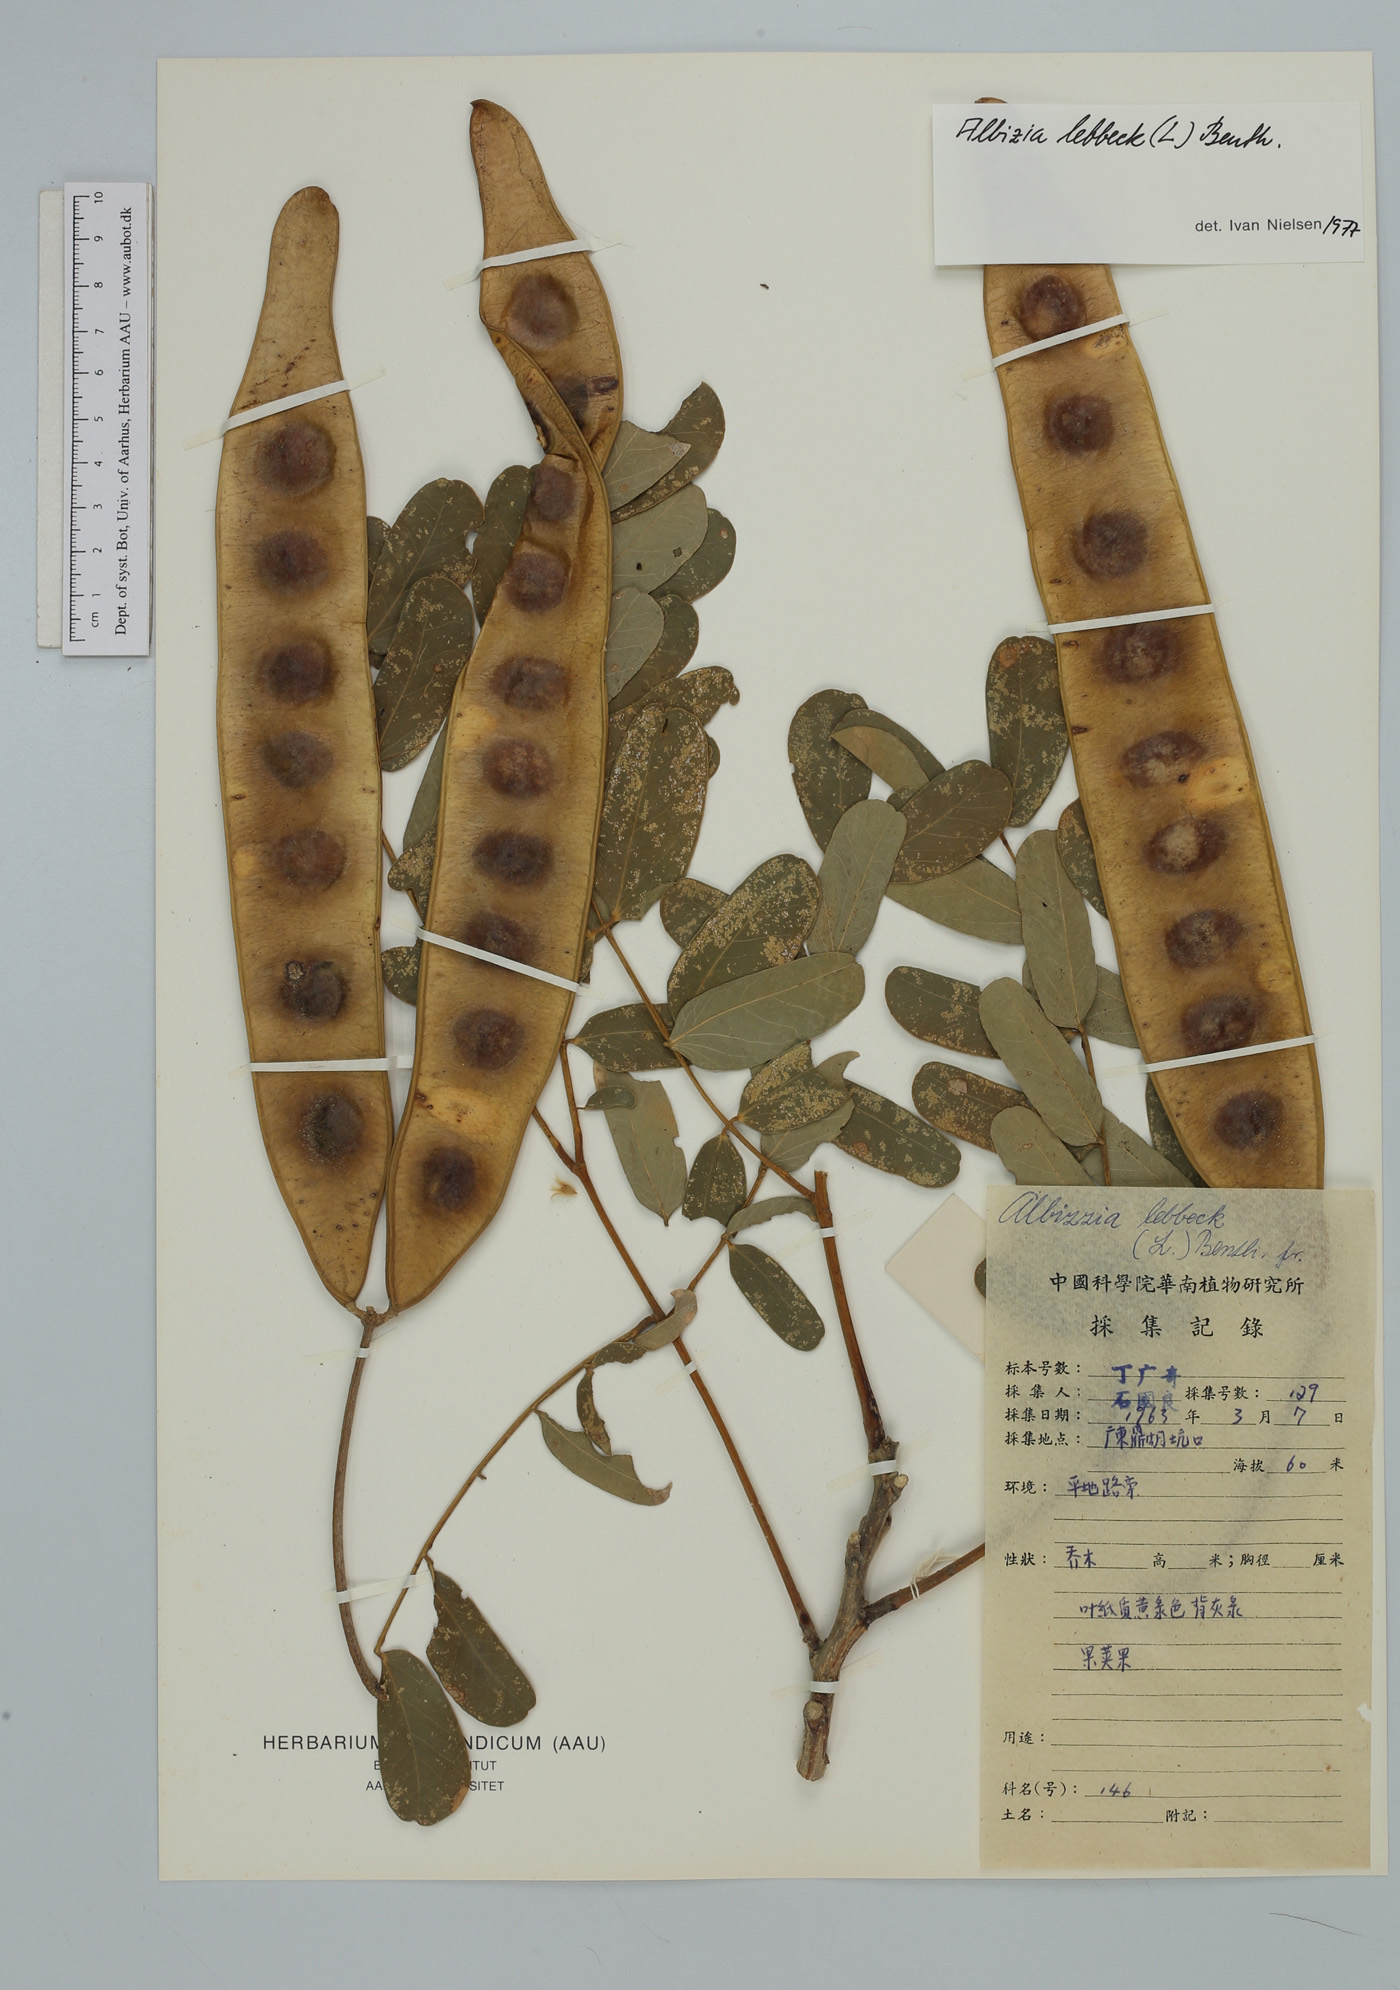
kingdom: Plantae
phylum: Tracheophyta
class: Magnoliopsida
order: Fabales
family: Fabaceae
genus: Albizia
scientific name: Albizia lebbeck
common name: Woman's tongue
